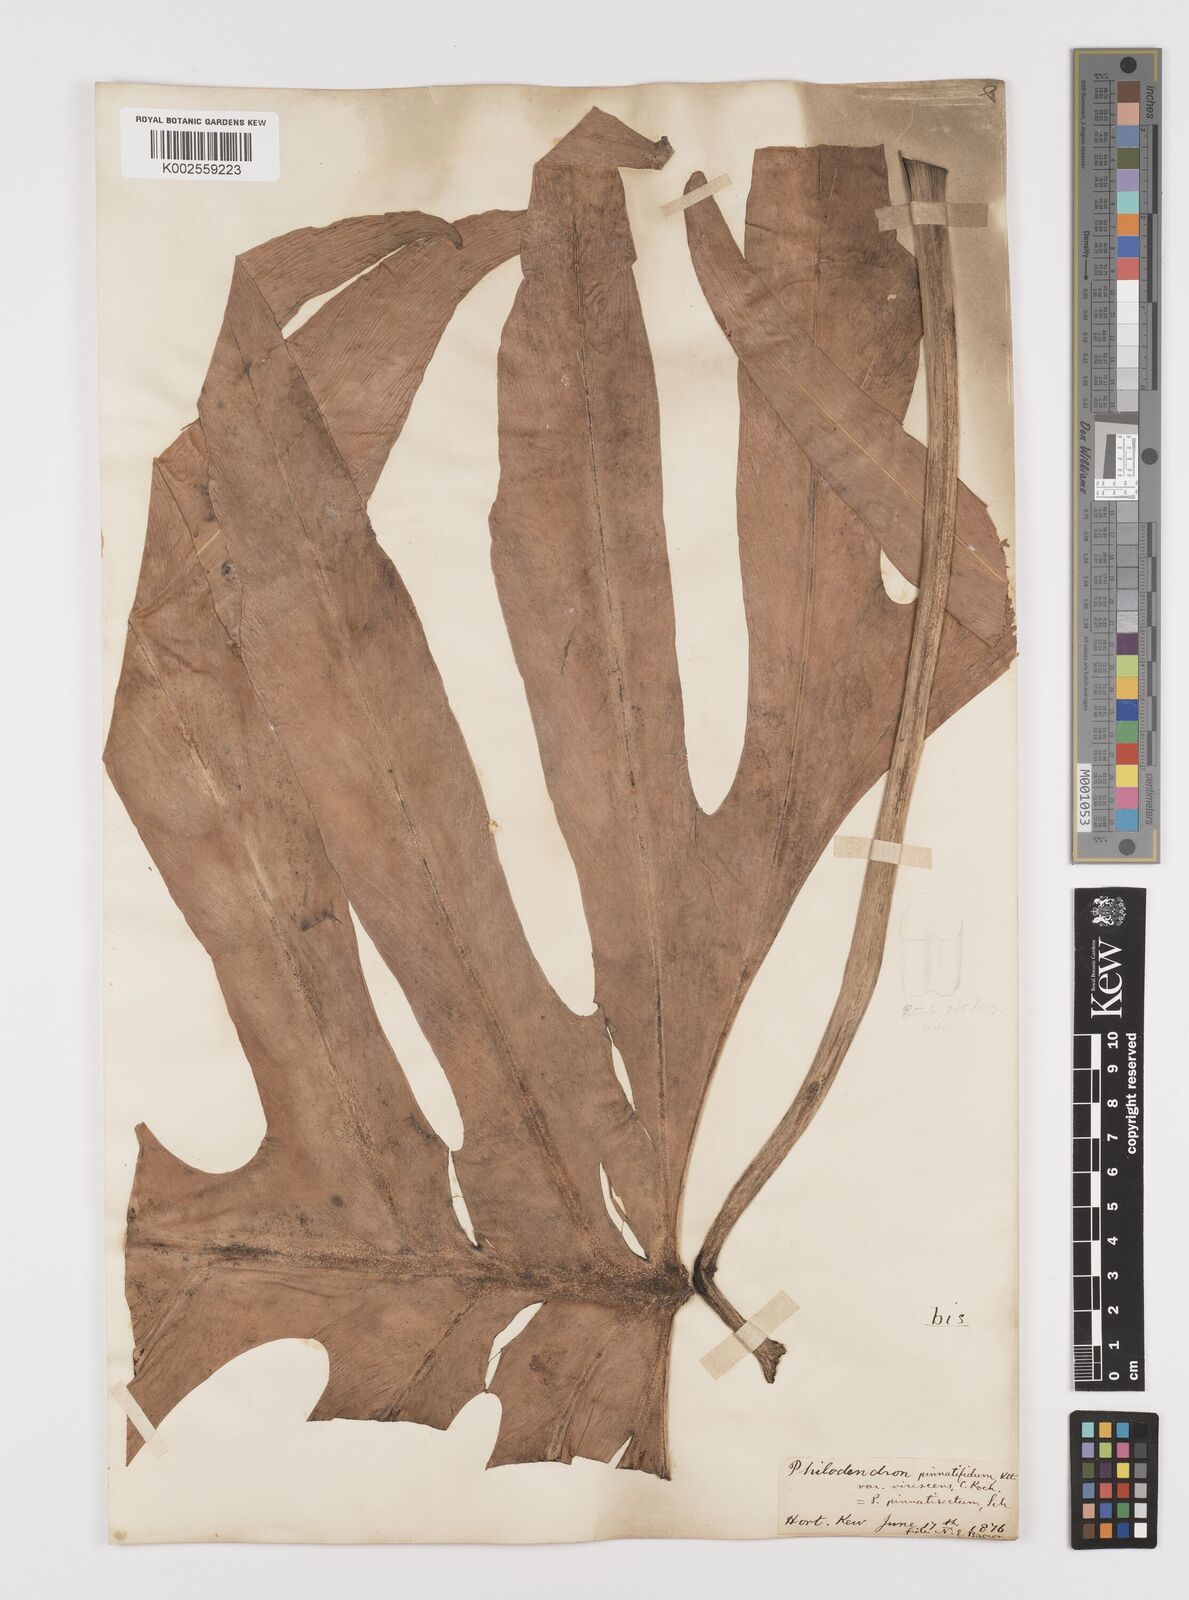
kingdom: Plantae
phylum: Tracheophyta
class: Liliopsida
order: Alismatales
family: Araceae
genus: Philodendron
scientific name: Philodendron pinnatifidum
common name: Comb-leaf philodendron
